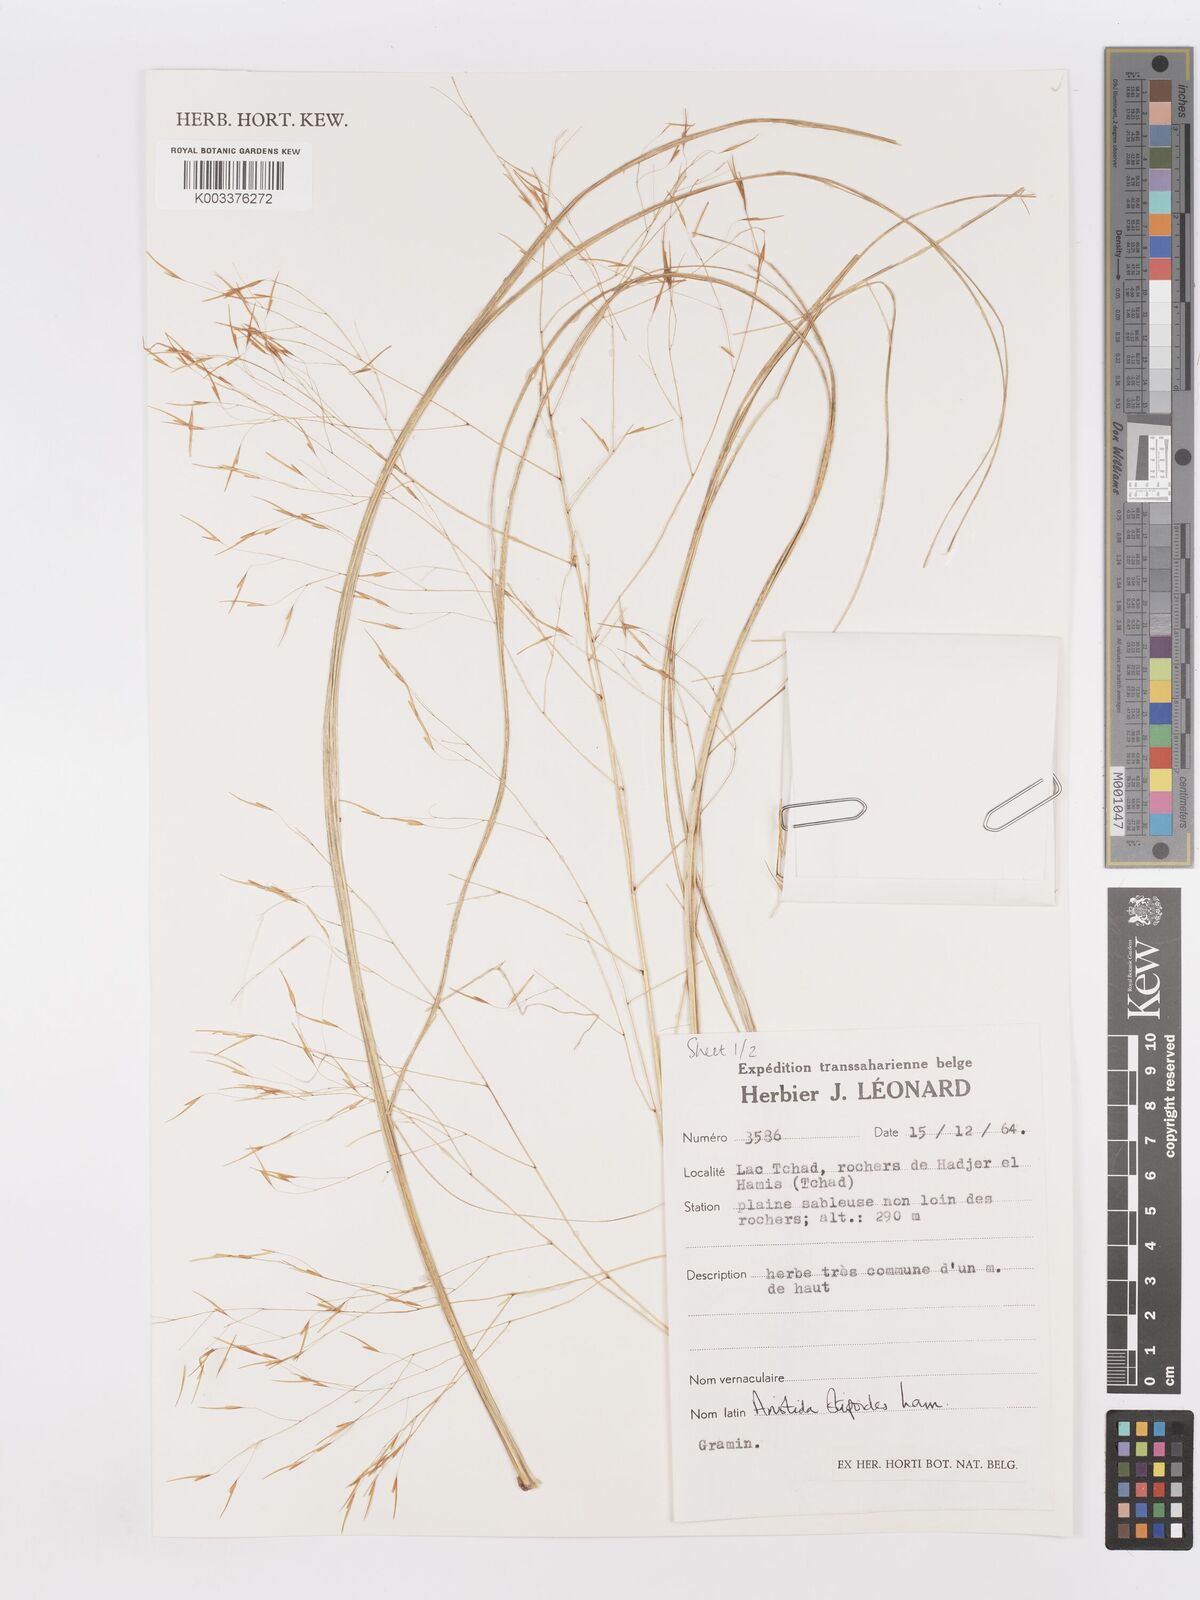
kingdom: Plantae
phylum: Tracheophyta
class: Liliopsida
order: Poales
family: Poaceae
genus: Aristida
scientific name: Aristida stipoides
